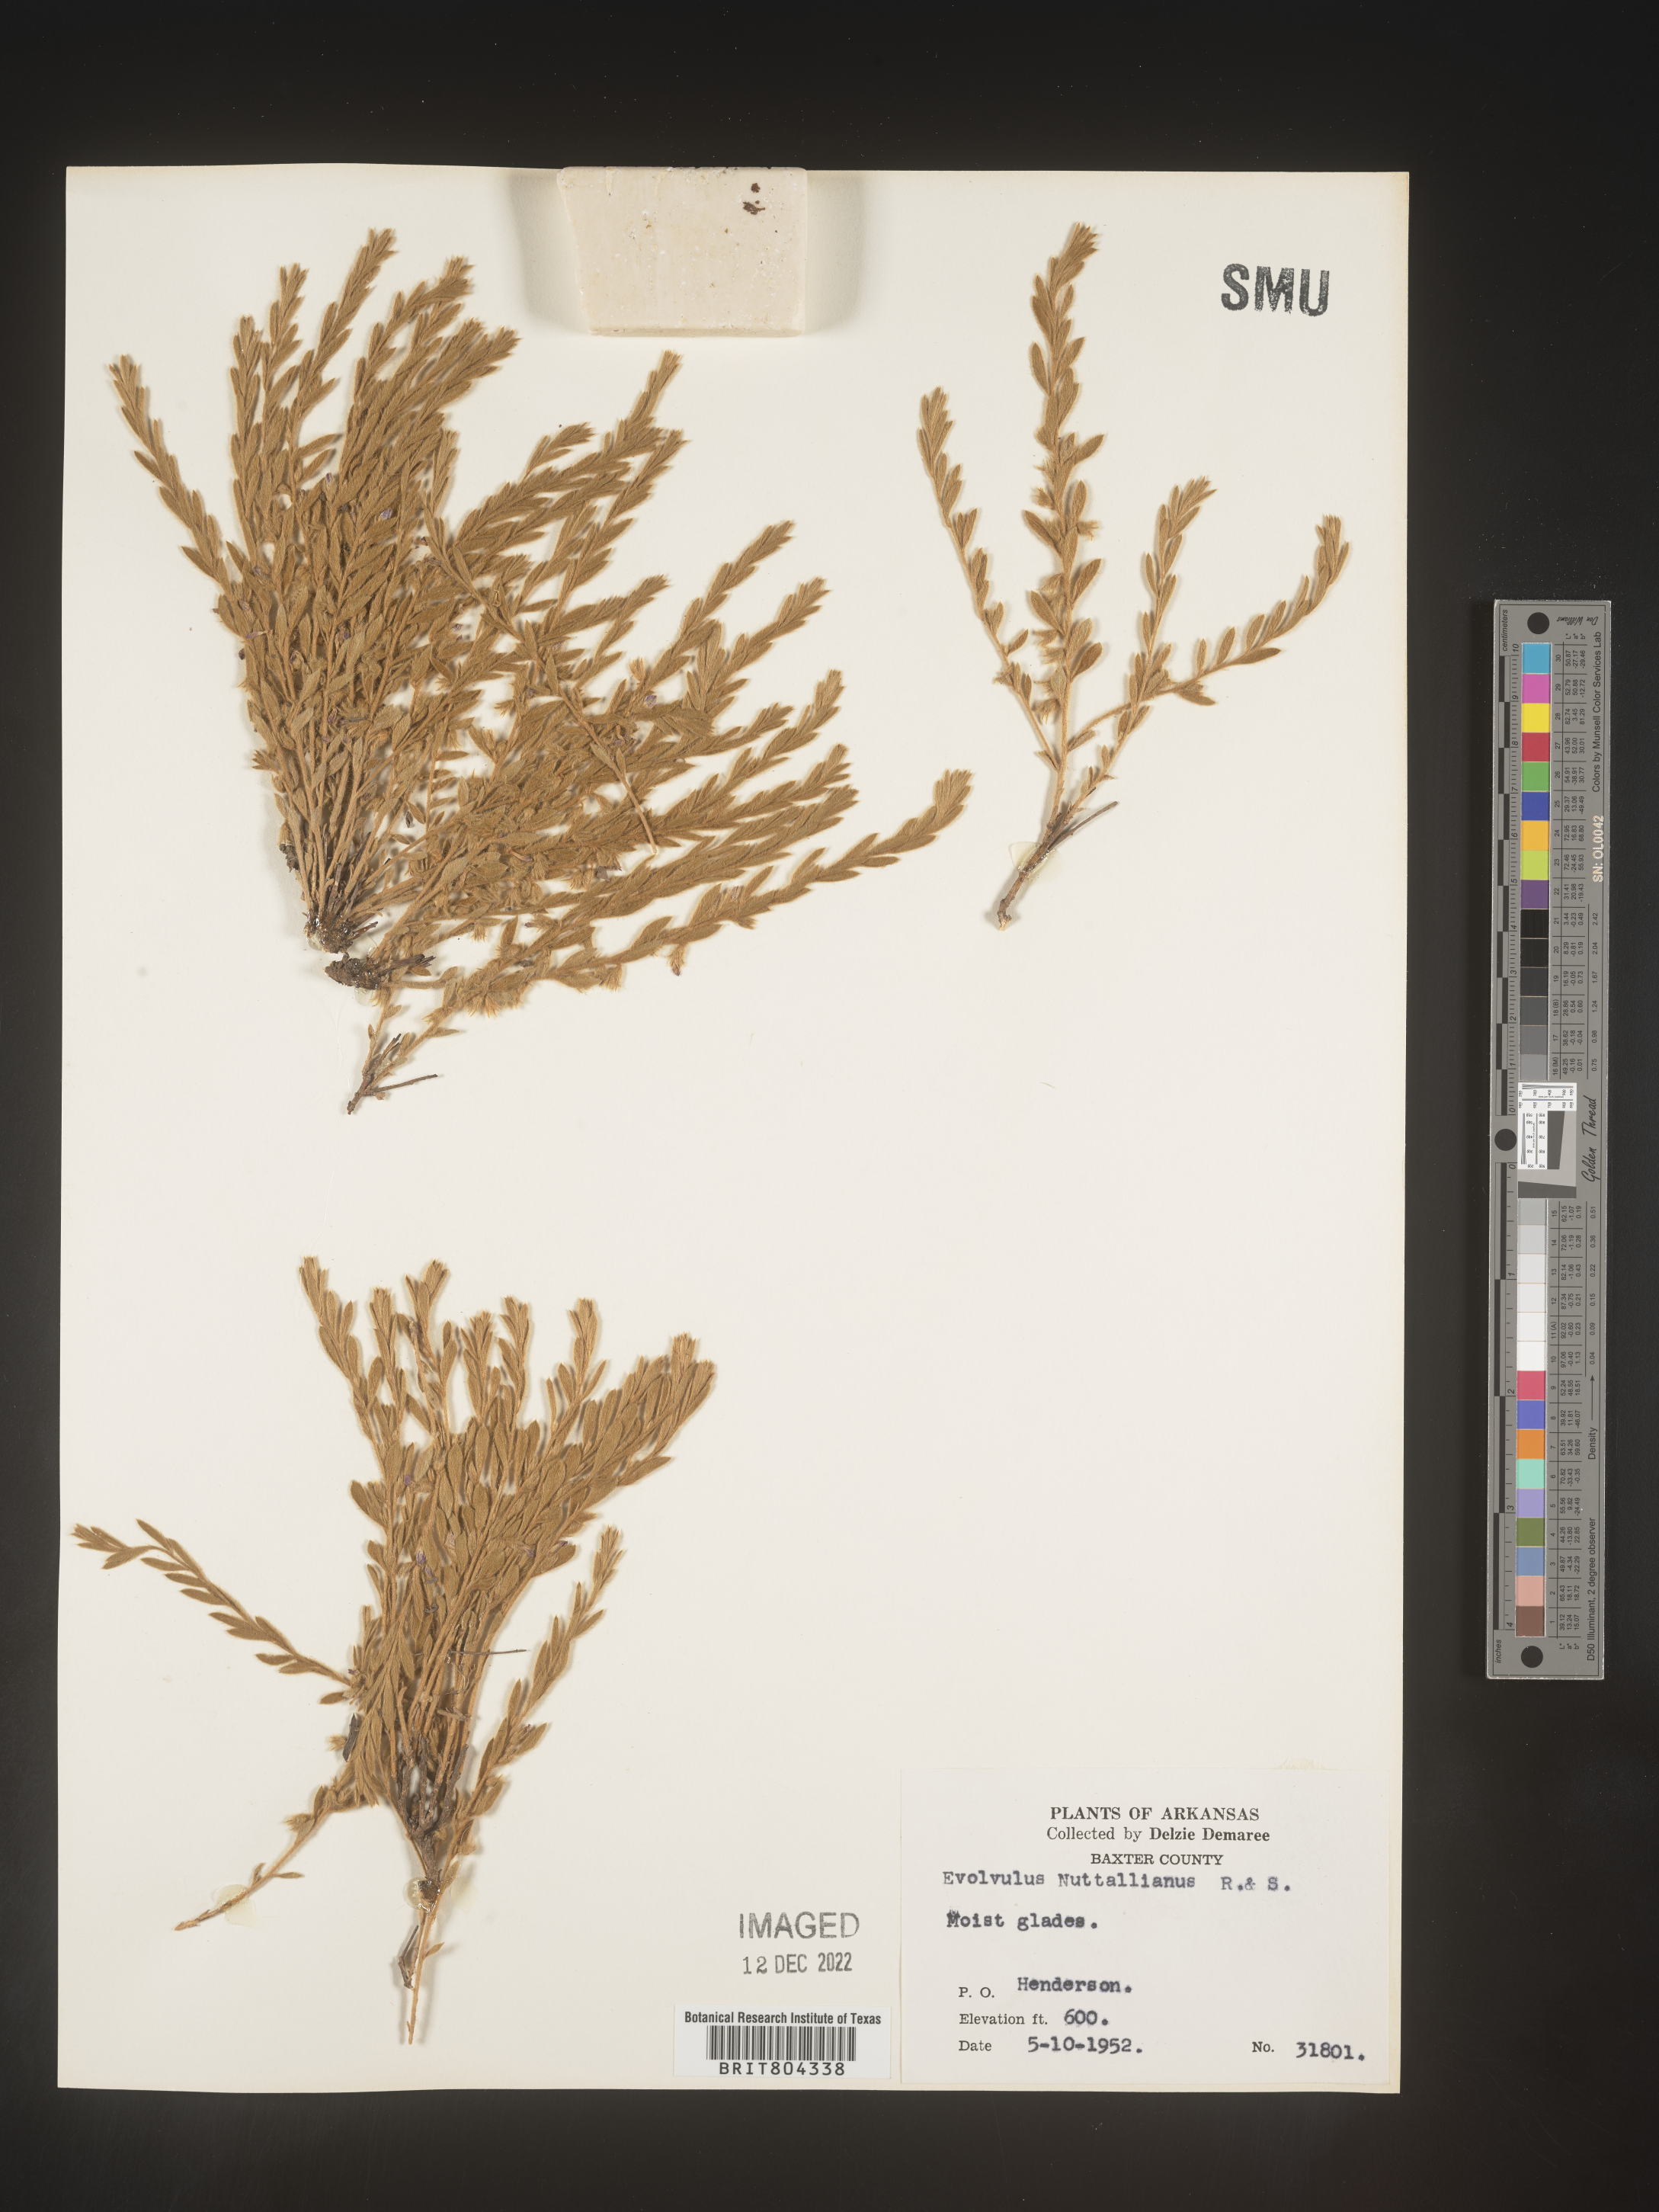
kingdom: Plantae
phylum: Tracheophyta
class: Magnoliopsida
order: Solanales
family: Convolvulaceae
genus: Evolvulus
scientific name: Evolvulus nuttallianus
